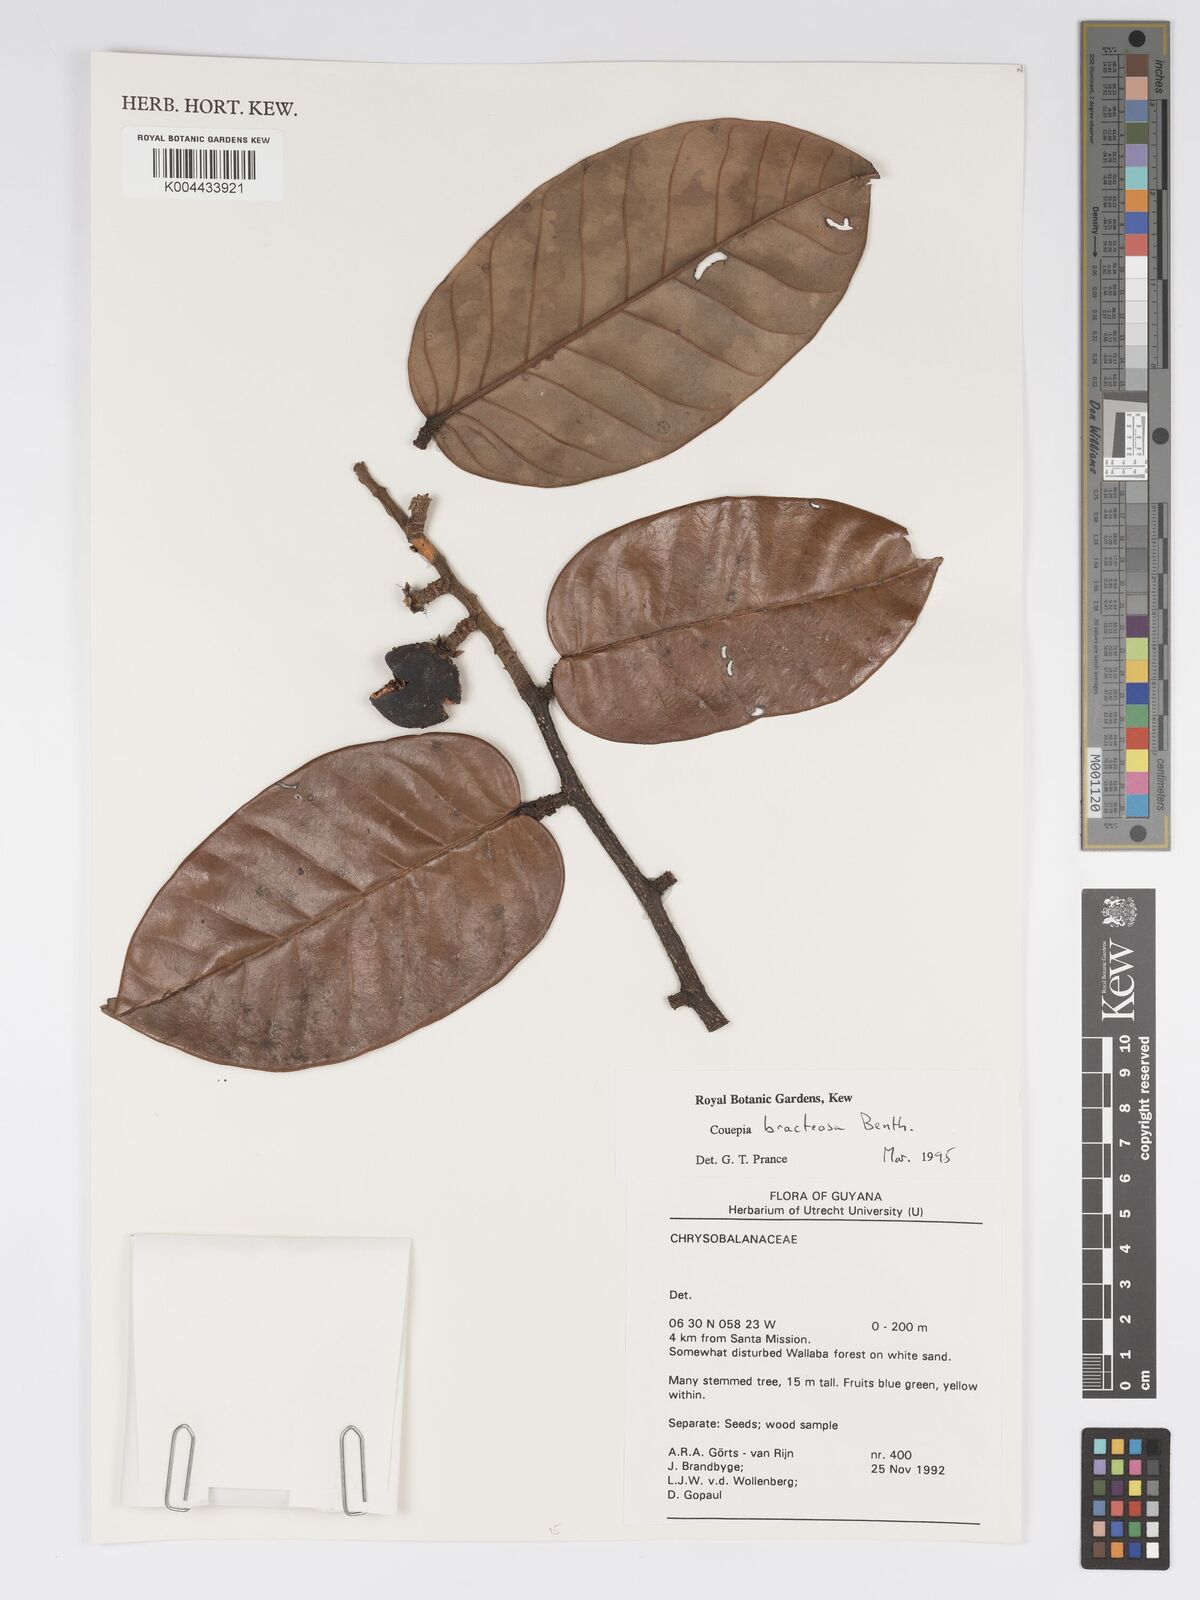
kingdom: Plantae
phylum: Tracheophyta
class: Magnoliopsida
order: Malpighiales
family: Chrysobalanaceae
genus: Couepia
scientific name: Couepia bracteosa
